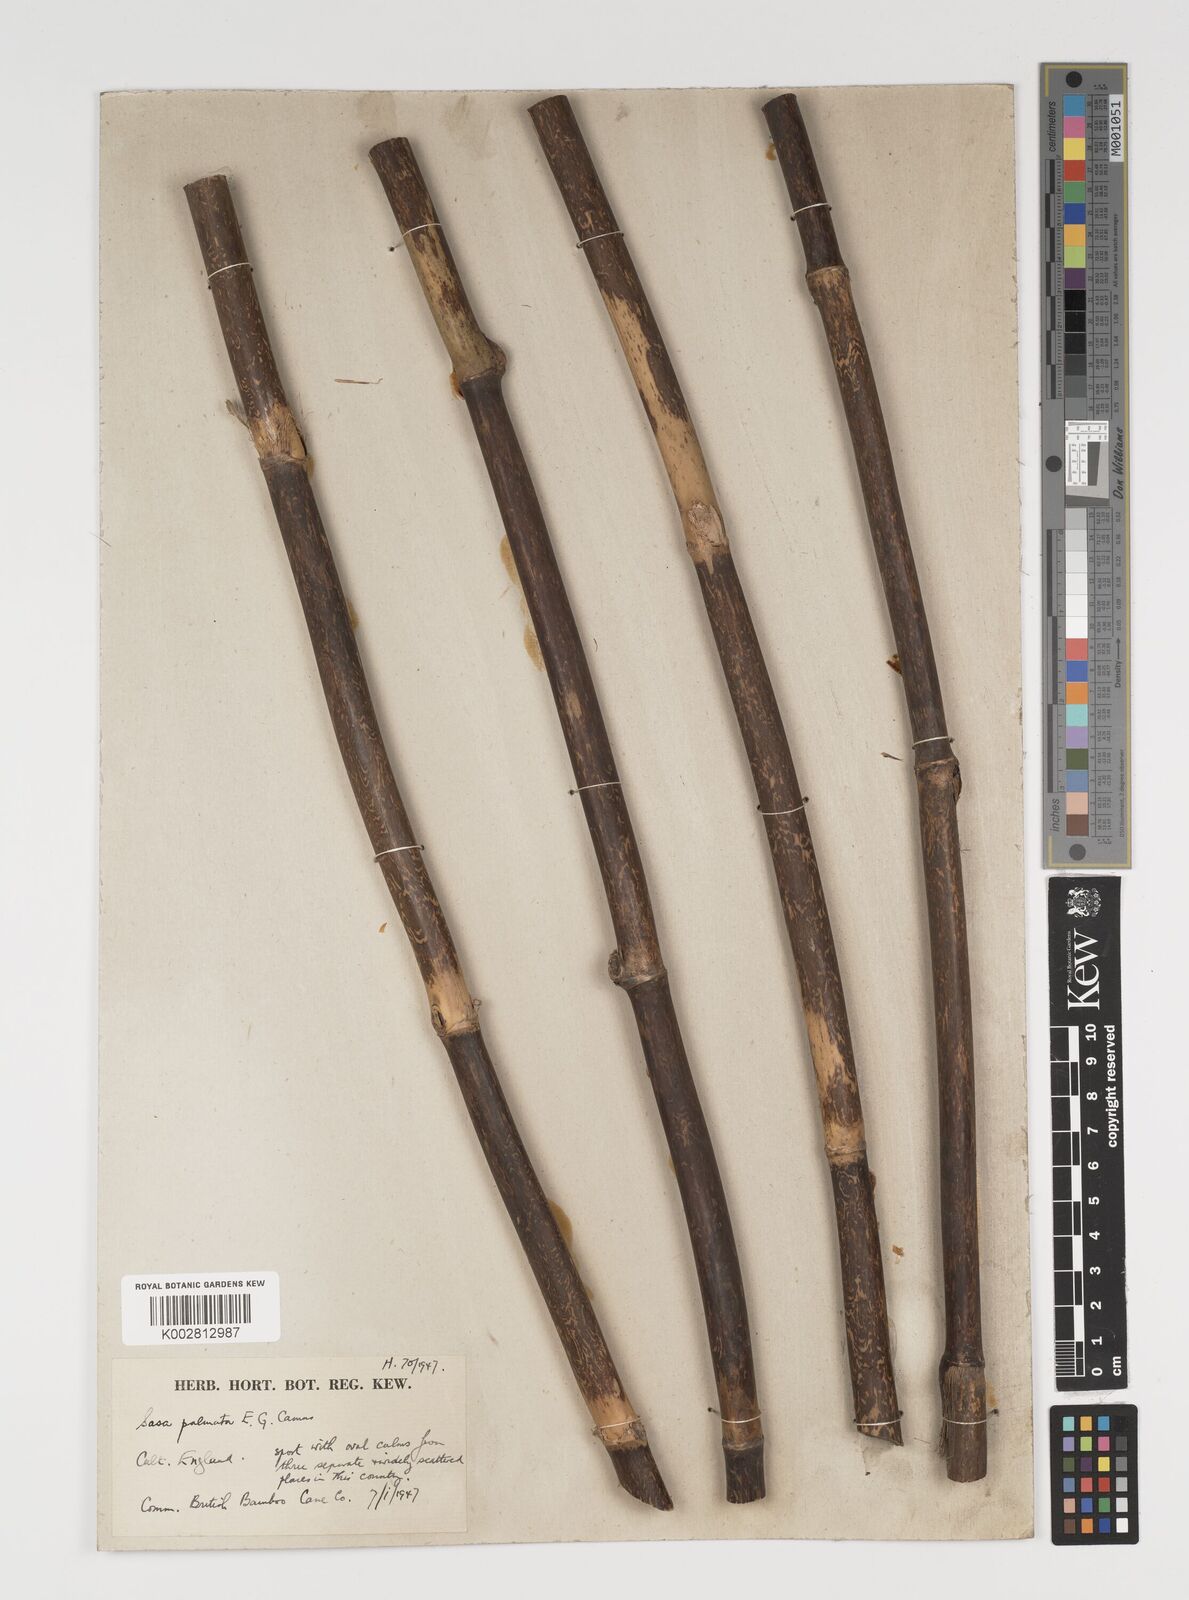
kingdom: Plantae
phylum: Tracheophyta
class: Liliopsida
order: Poales
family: Poaceae
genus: Sasa
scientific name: Sasa palmata
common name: Broad-leaved bamboo
